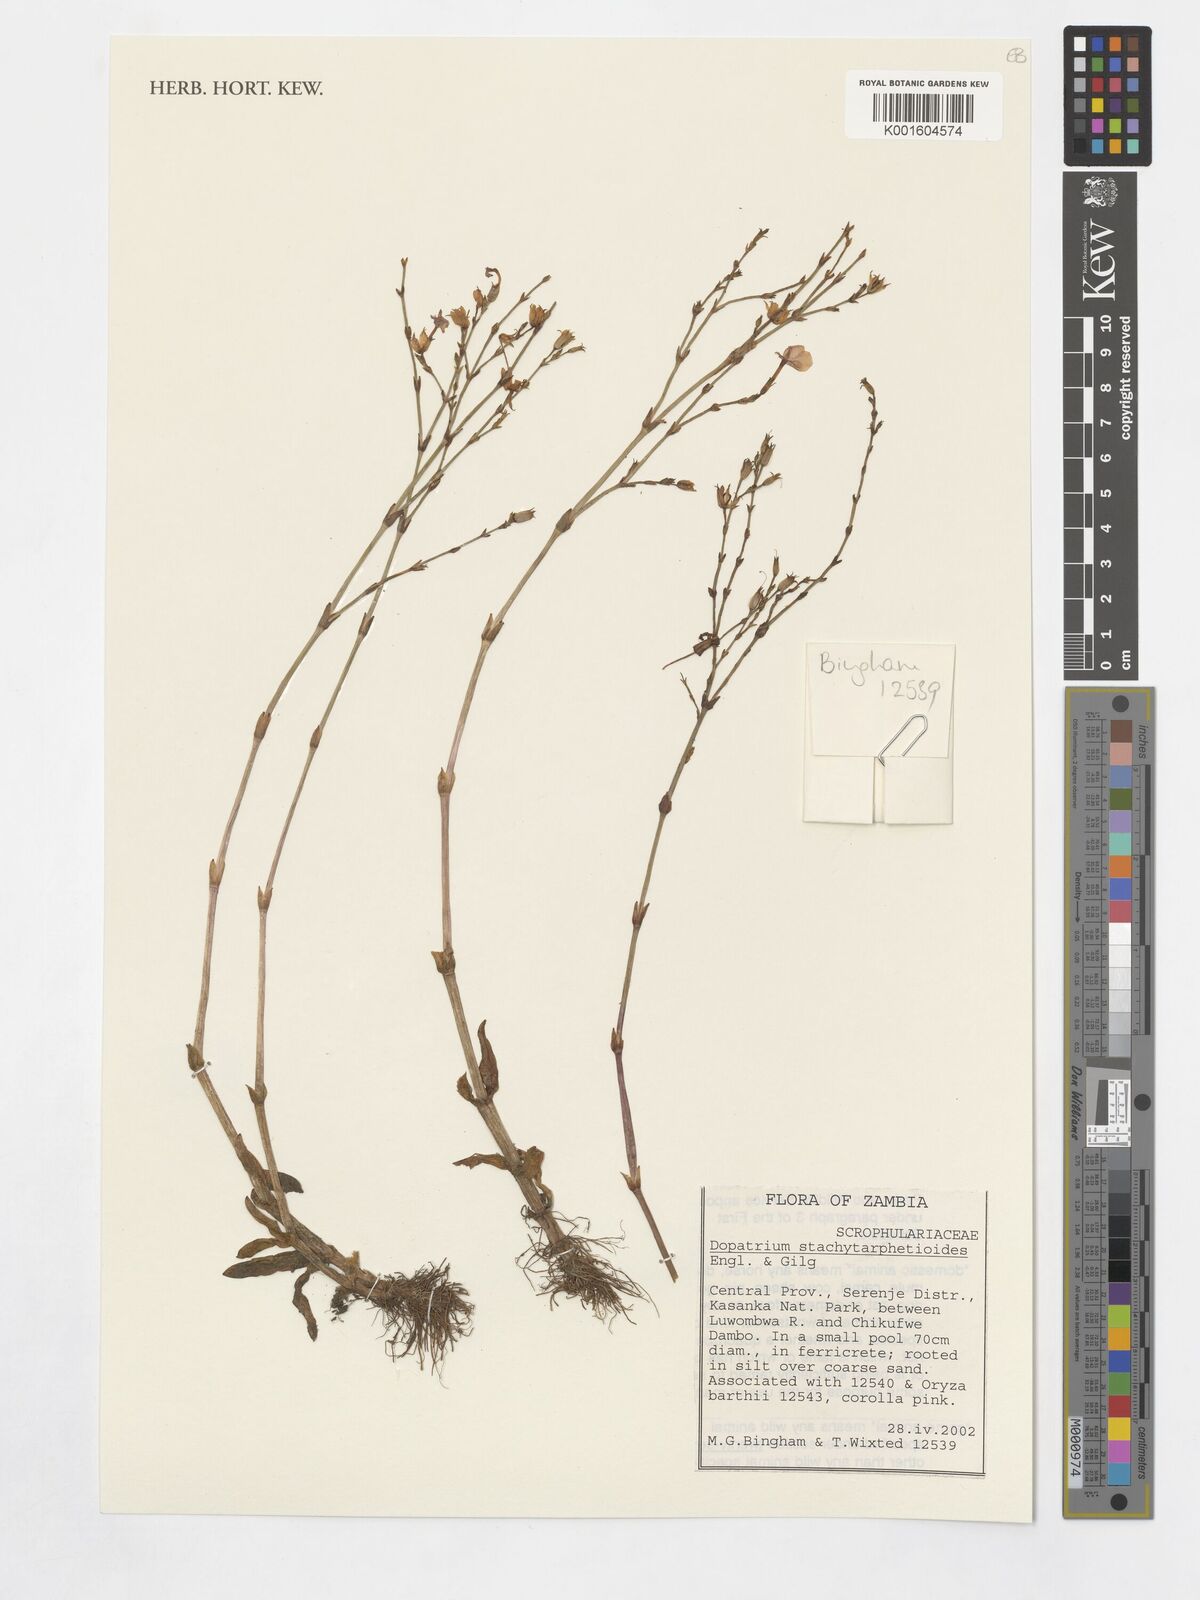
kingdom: Plantae
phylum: Tracheophyta
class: Magnoliopsida
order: Lamiales
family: Plantaginaceae
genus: Dopatrium
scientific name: Dopatrium stachytarphetoides
